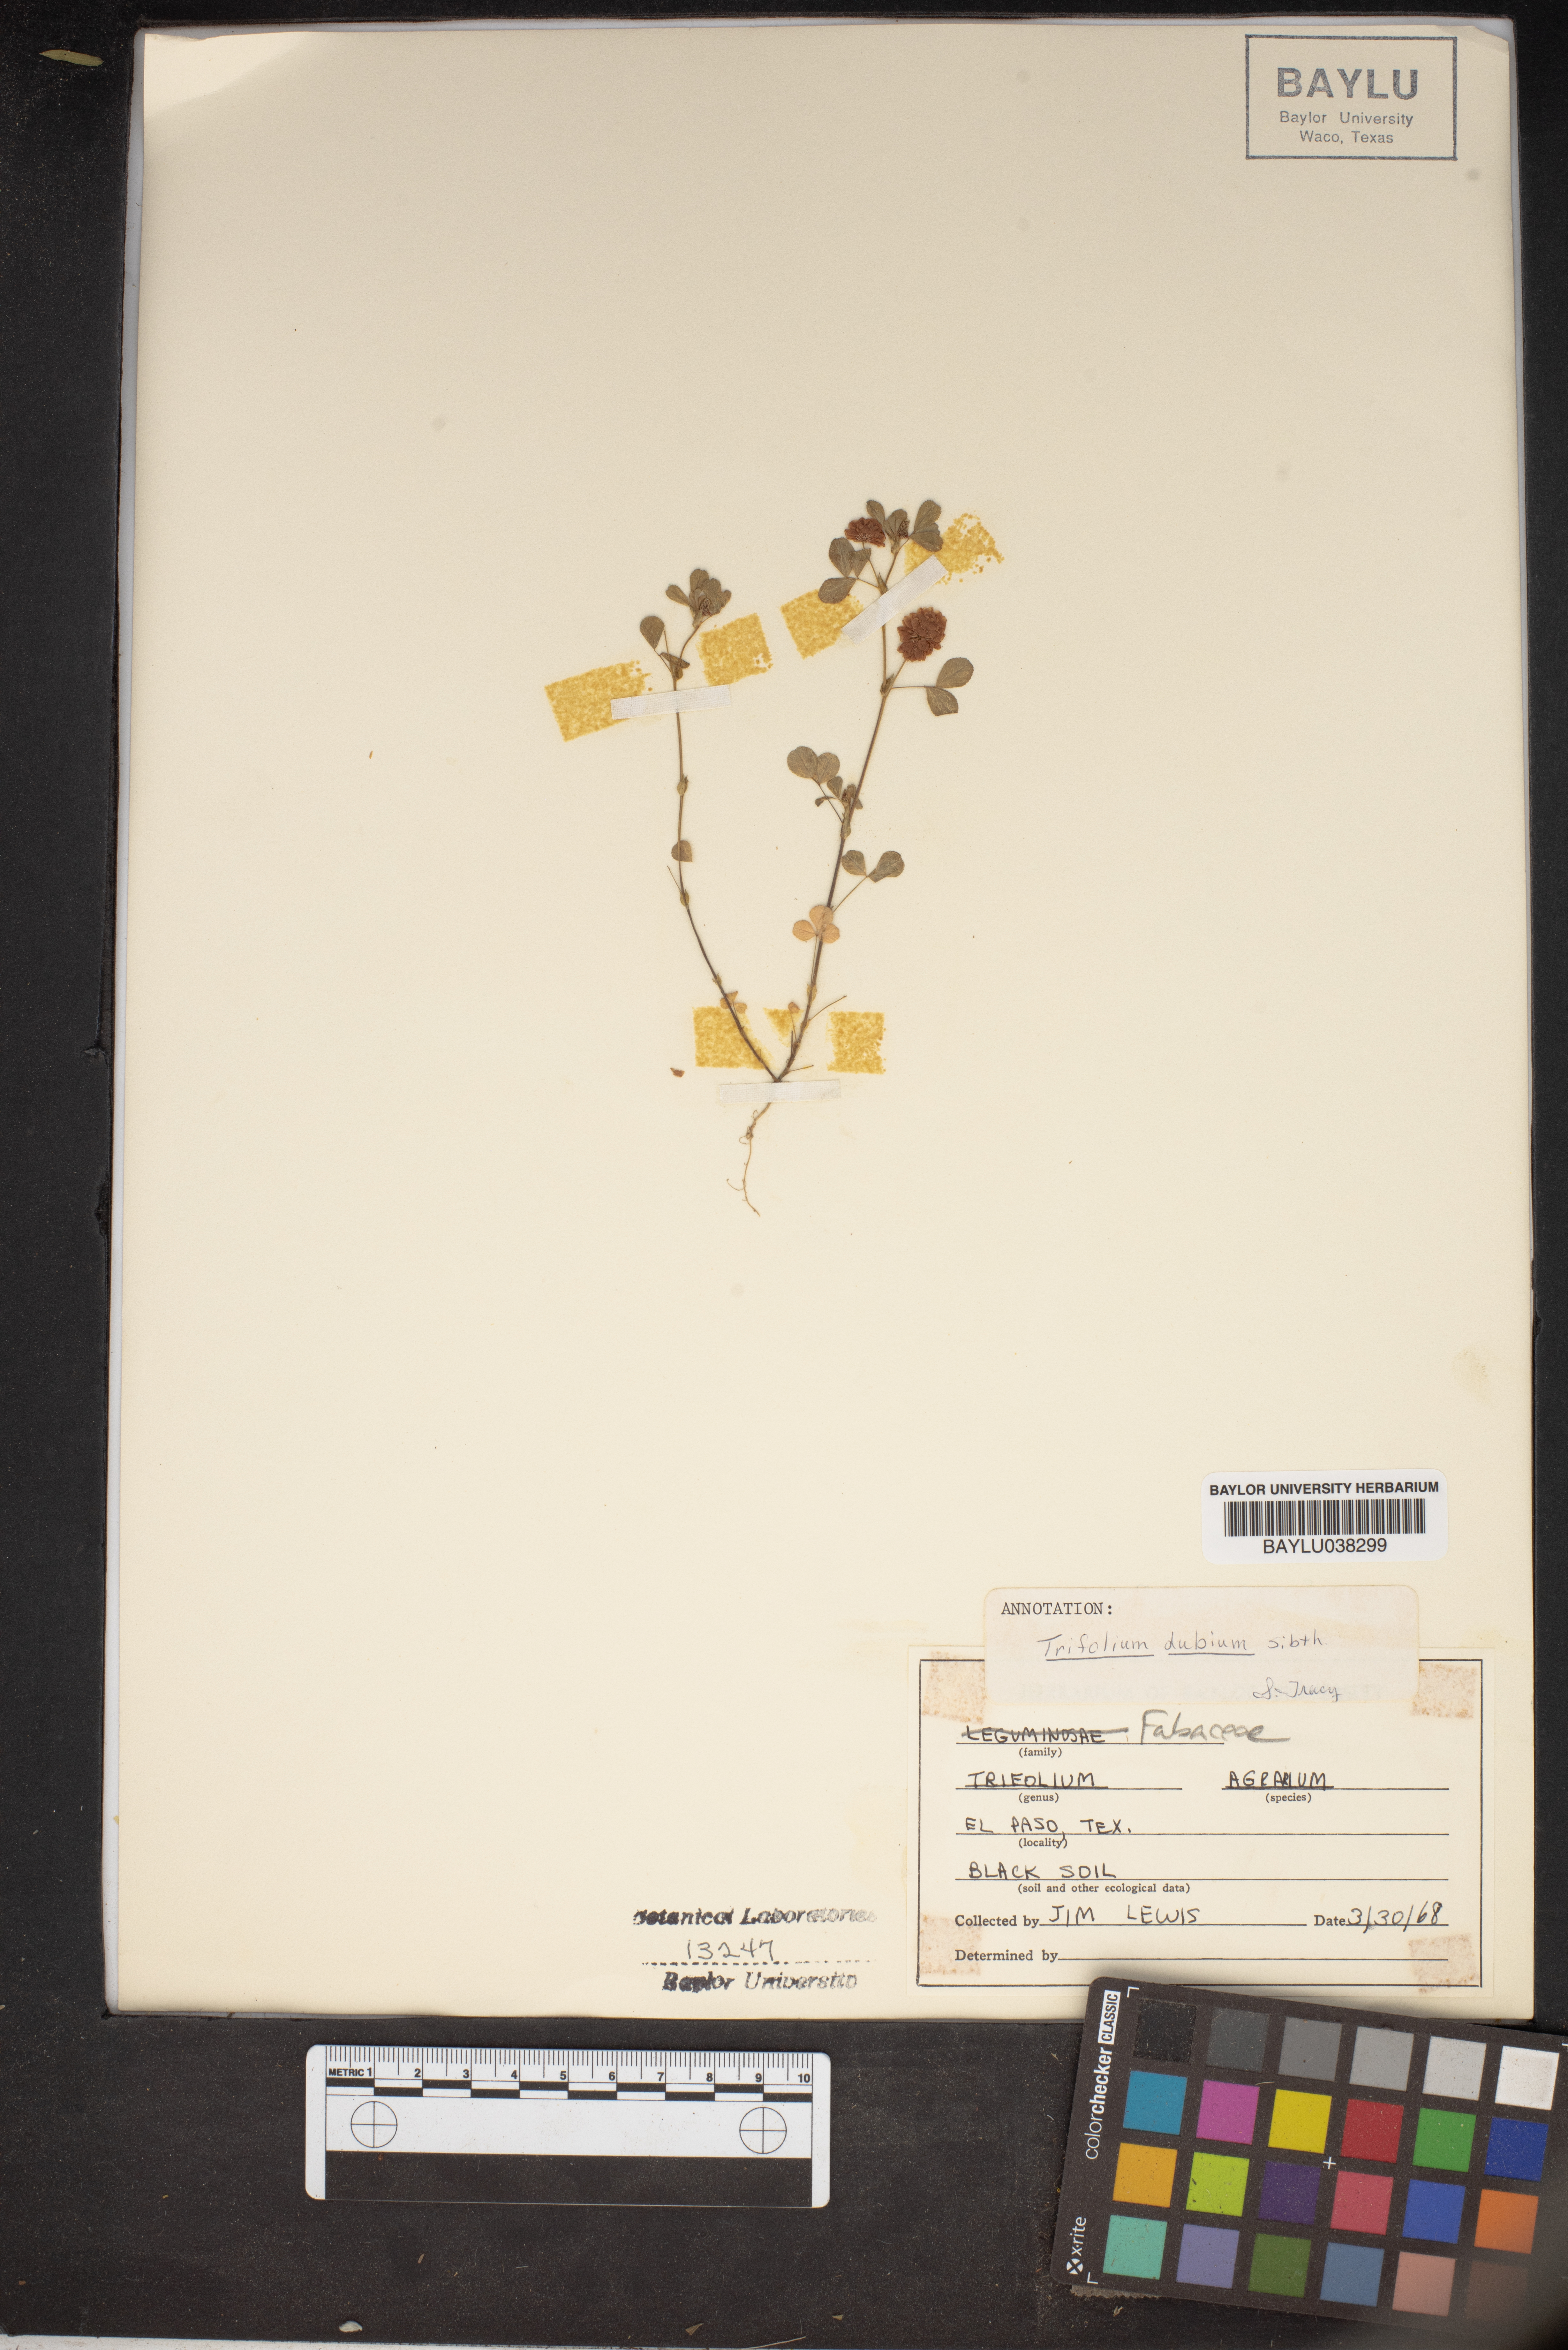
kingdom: Plantae
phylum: Tracheophyta
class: Magnoliopsida
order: Fabales
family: Fabaceae
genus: Trifolium
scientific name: Trifolium dubium
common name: Suckling clover
